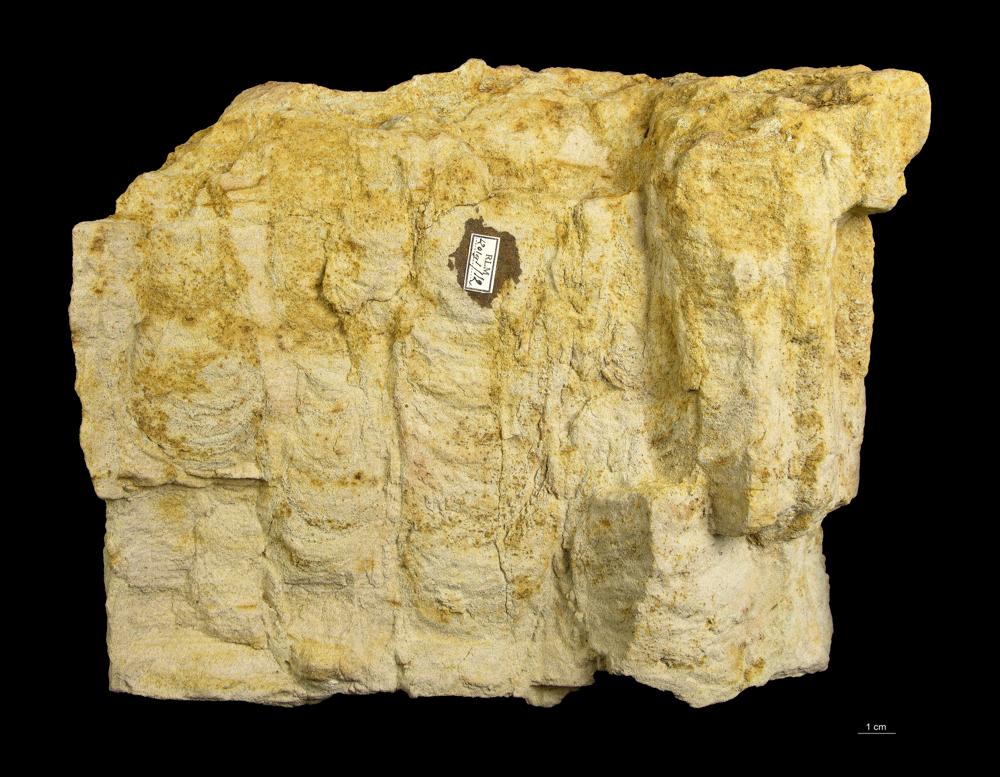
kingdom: Animalia
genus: Diplocraterion
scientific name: Diplocraterion parallelum
